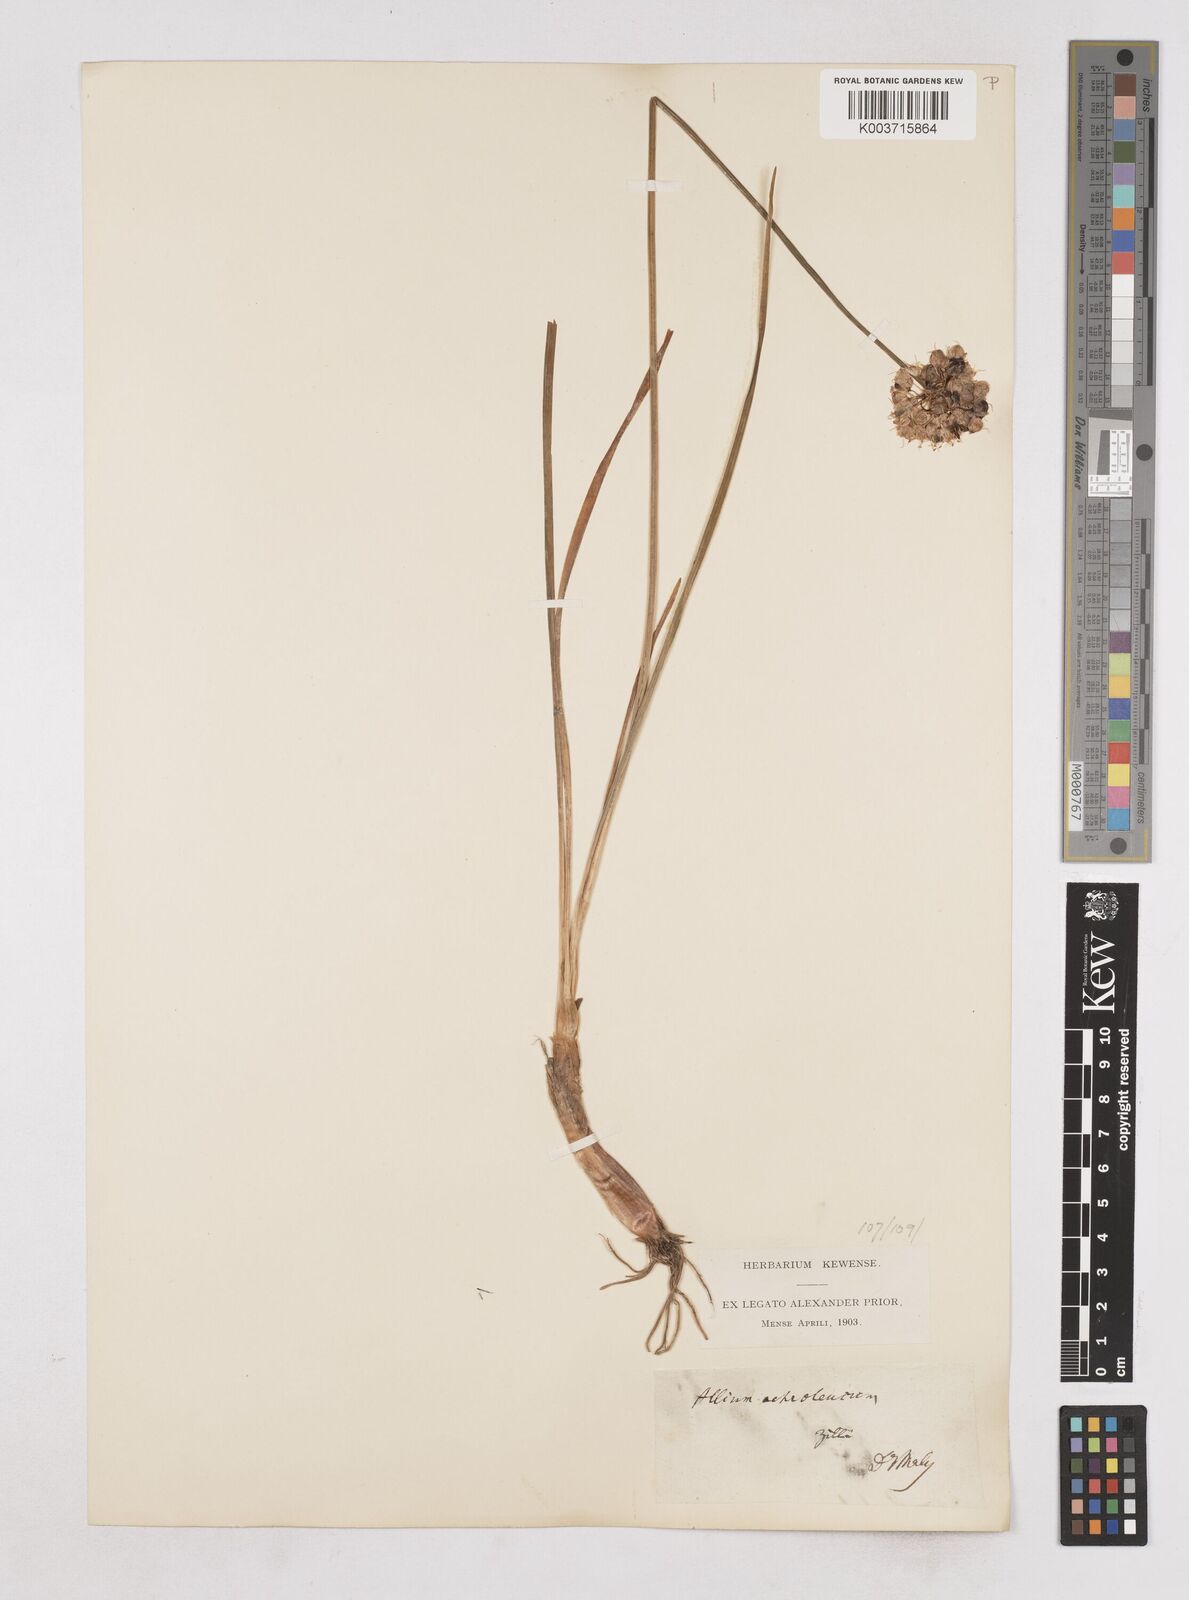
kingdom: Plantae
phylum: Tracheophyta
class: Liliopsida
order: Asparagales
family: Amaryllidaceae
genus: Allium
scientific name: Allium ericetorum
